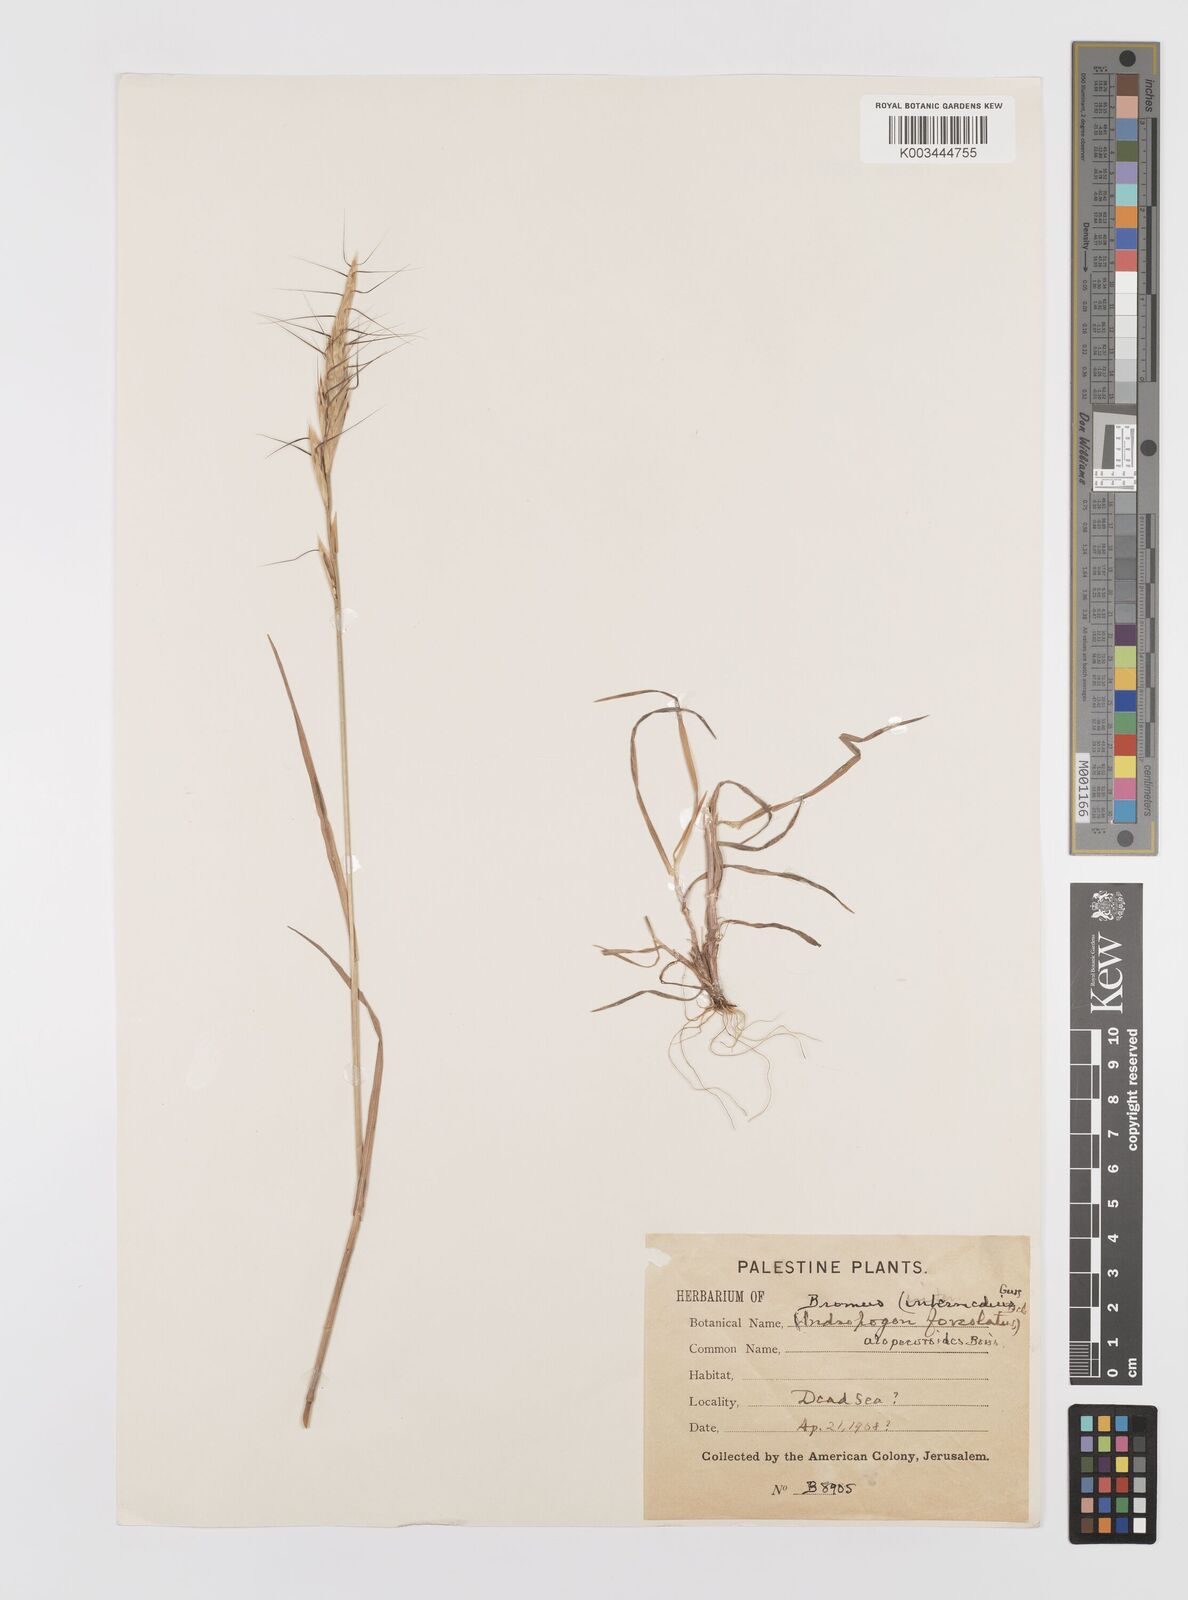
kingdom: Plantae
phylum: Tracheophyta
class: Liliopsida
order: Poales
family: Poaceae
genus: Bromus
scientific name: Bromus alopecuros
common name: Weedy brome
